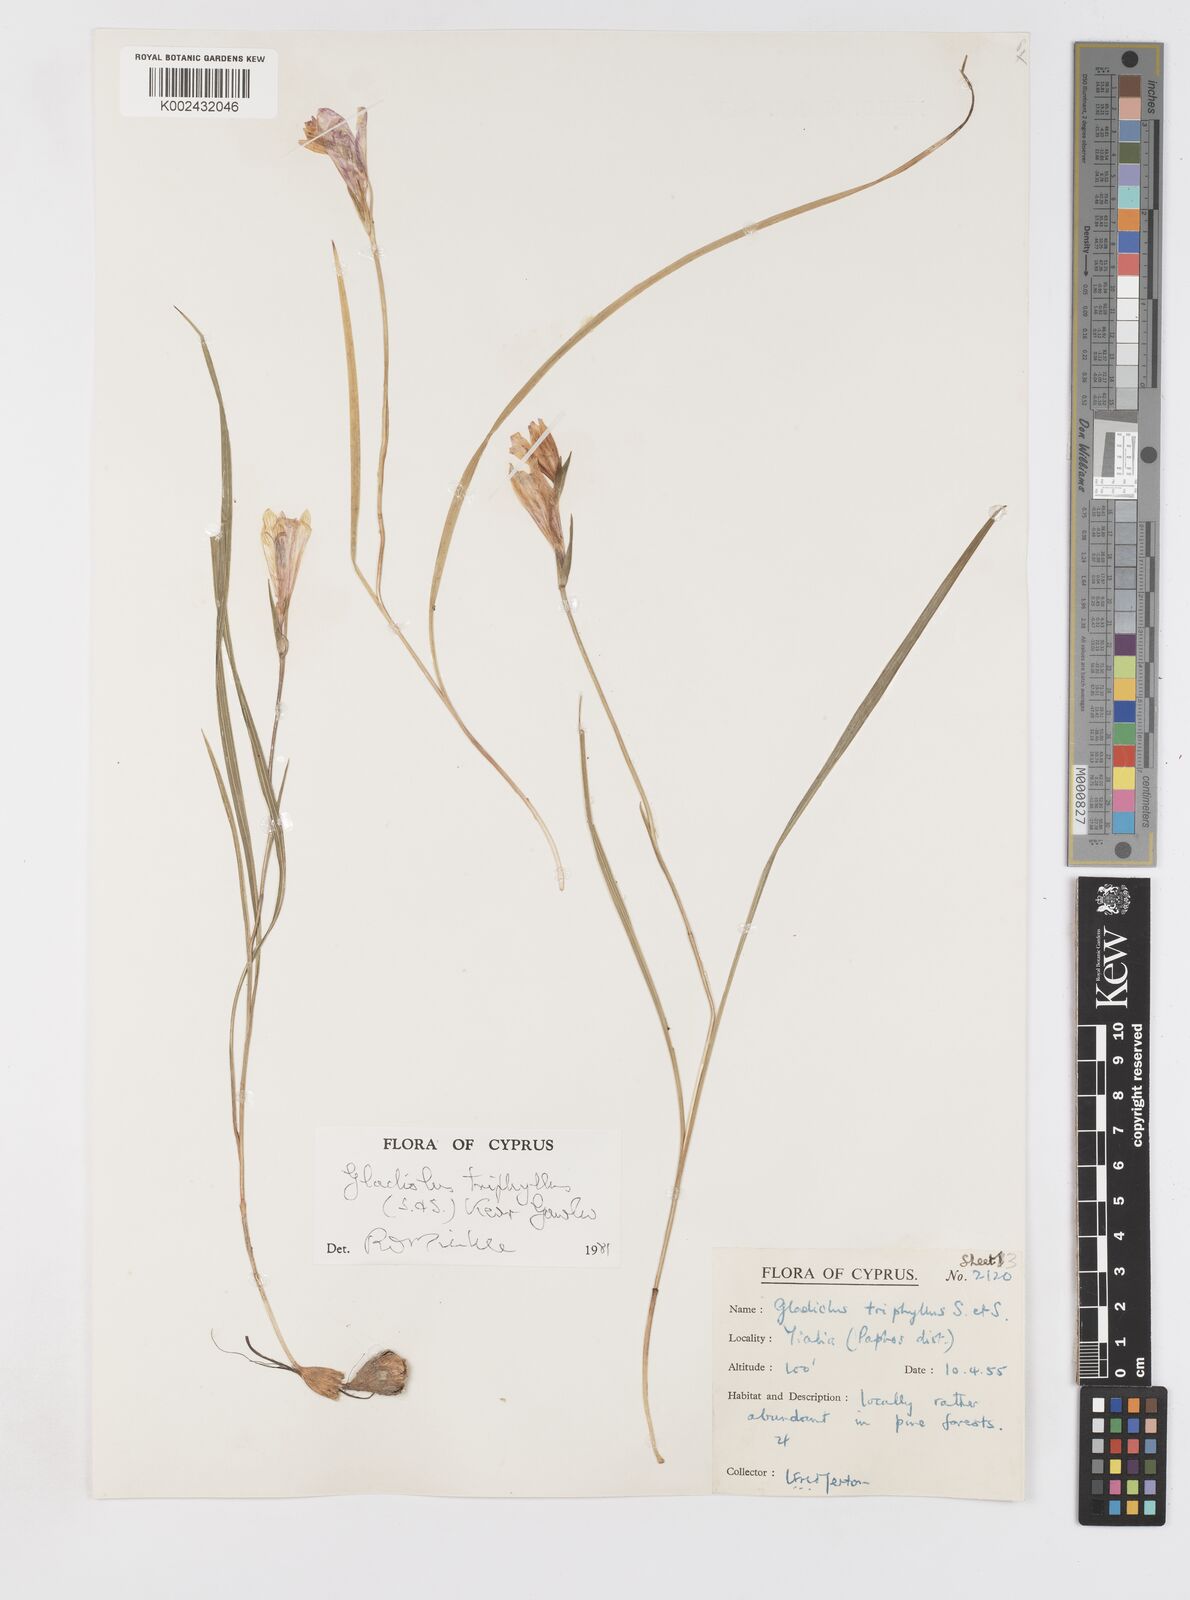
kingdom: Plantae
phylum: Tracheophyta
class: Liliopsida
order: Asparagales
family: Iridaceae
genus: Gladiolus
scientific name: Gladiolus triphyllus
